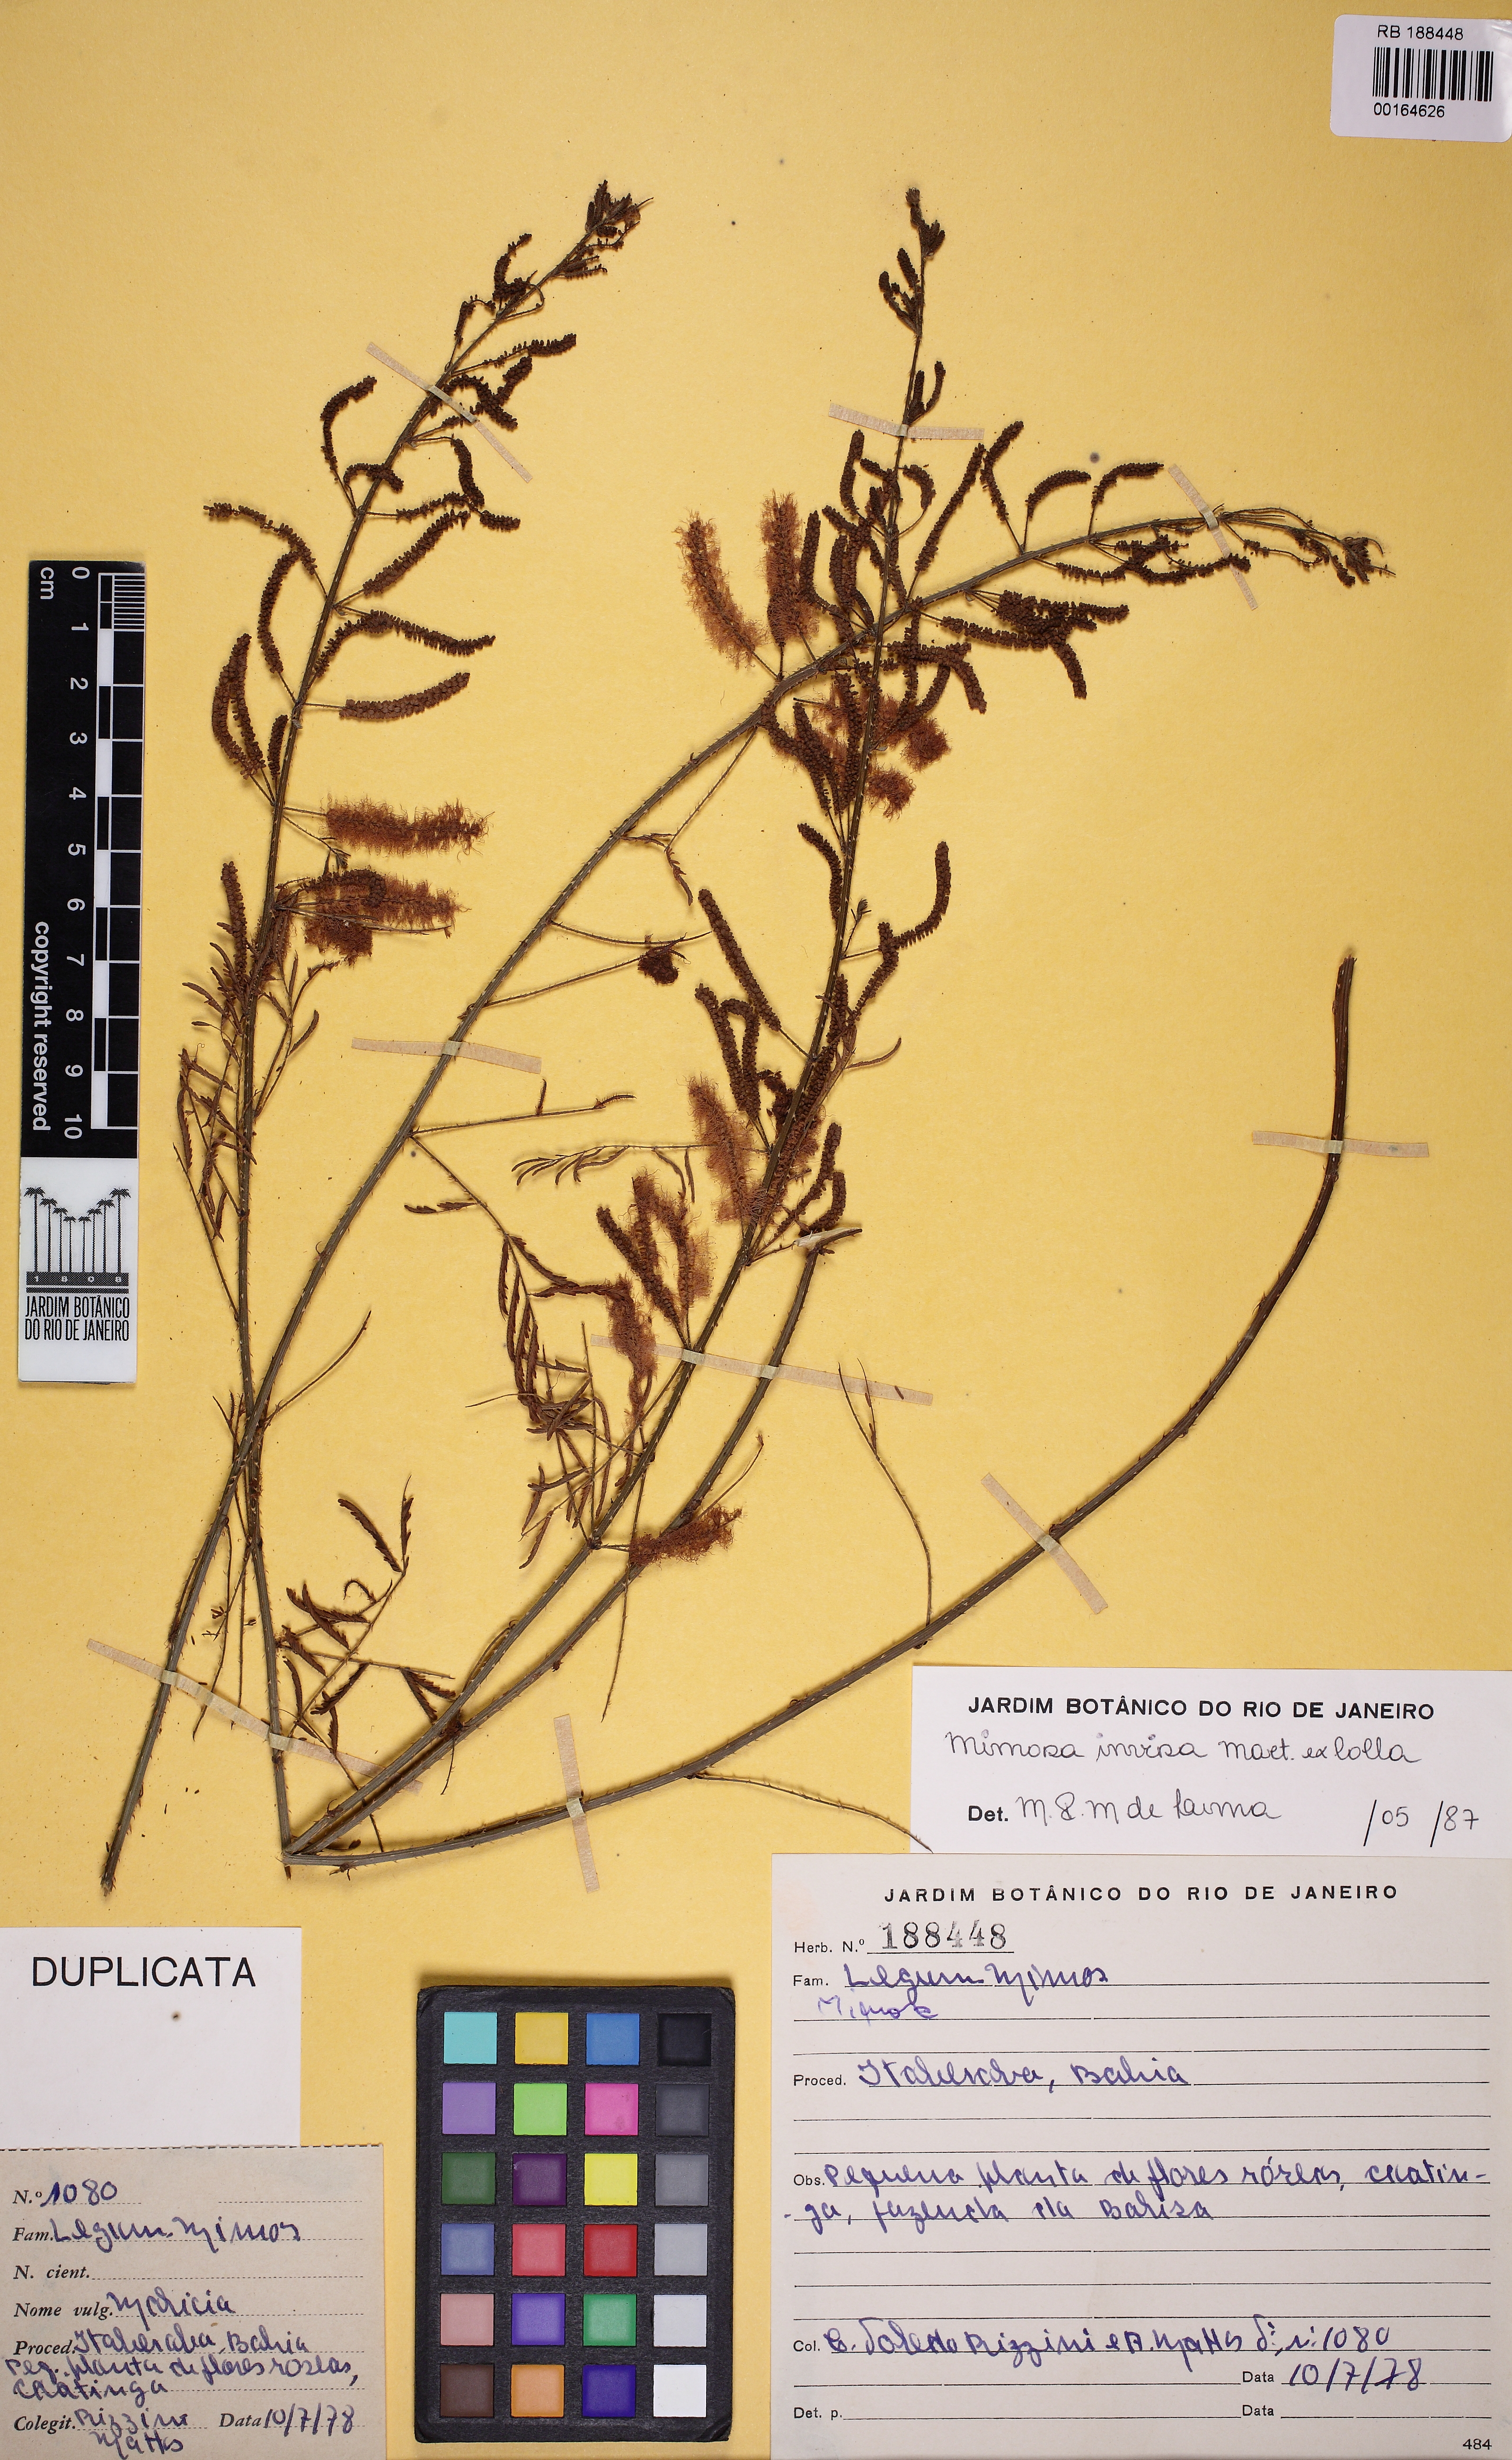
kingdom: Plantae
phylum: Tracheophyta
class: Magnoliopsida
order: Fabales
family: Fabaceae
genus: Mimosa
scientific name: Mimosa invisa
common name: Creeping sensitive-plant
